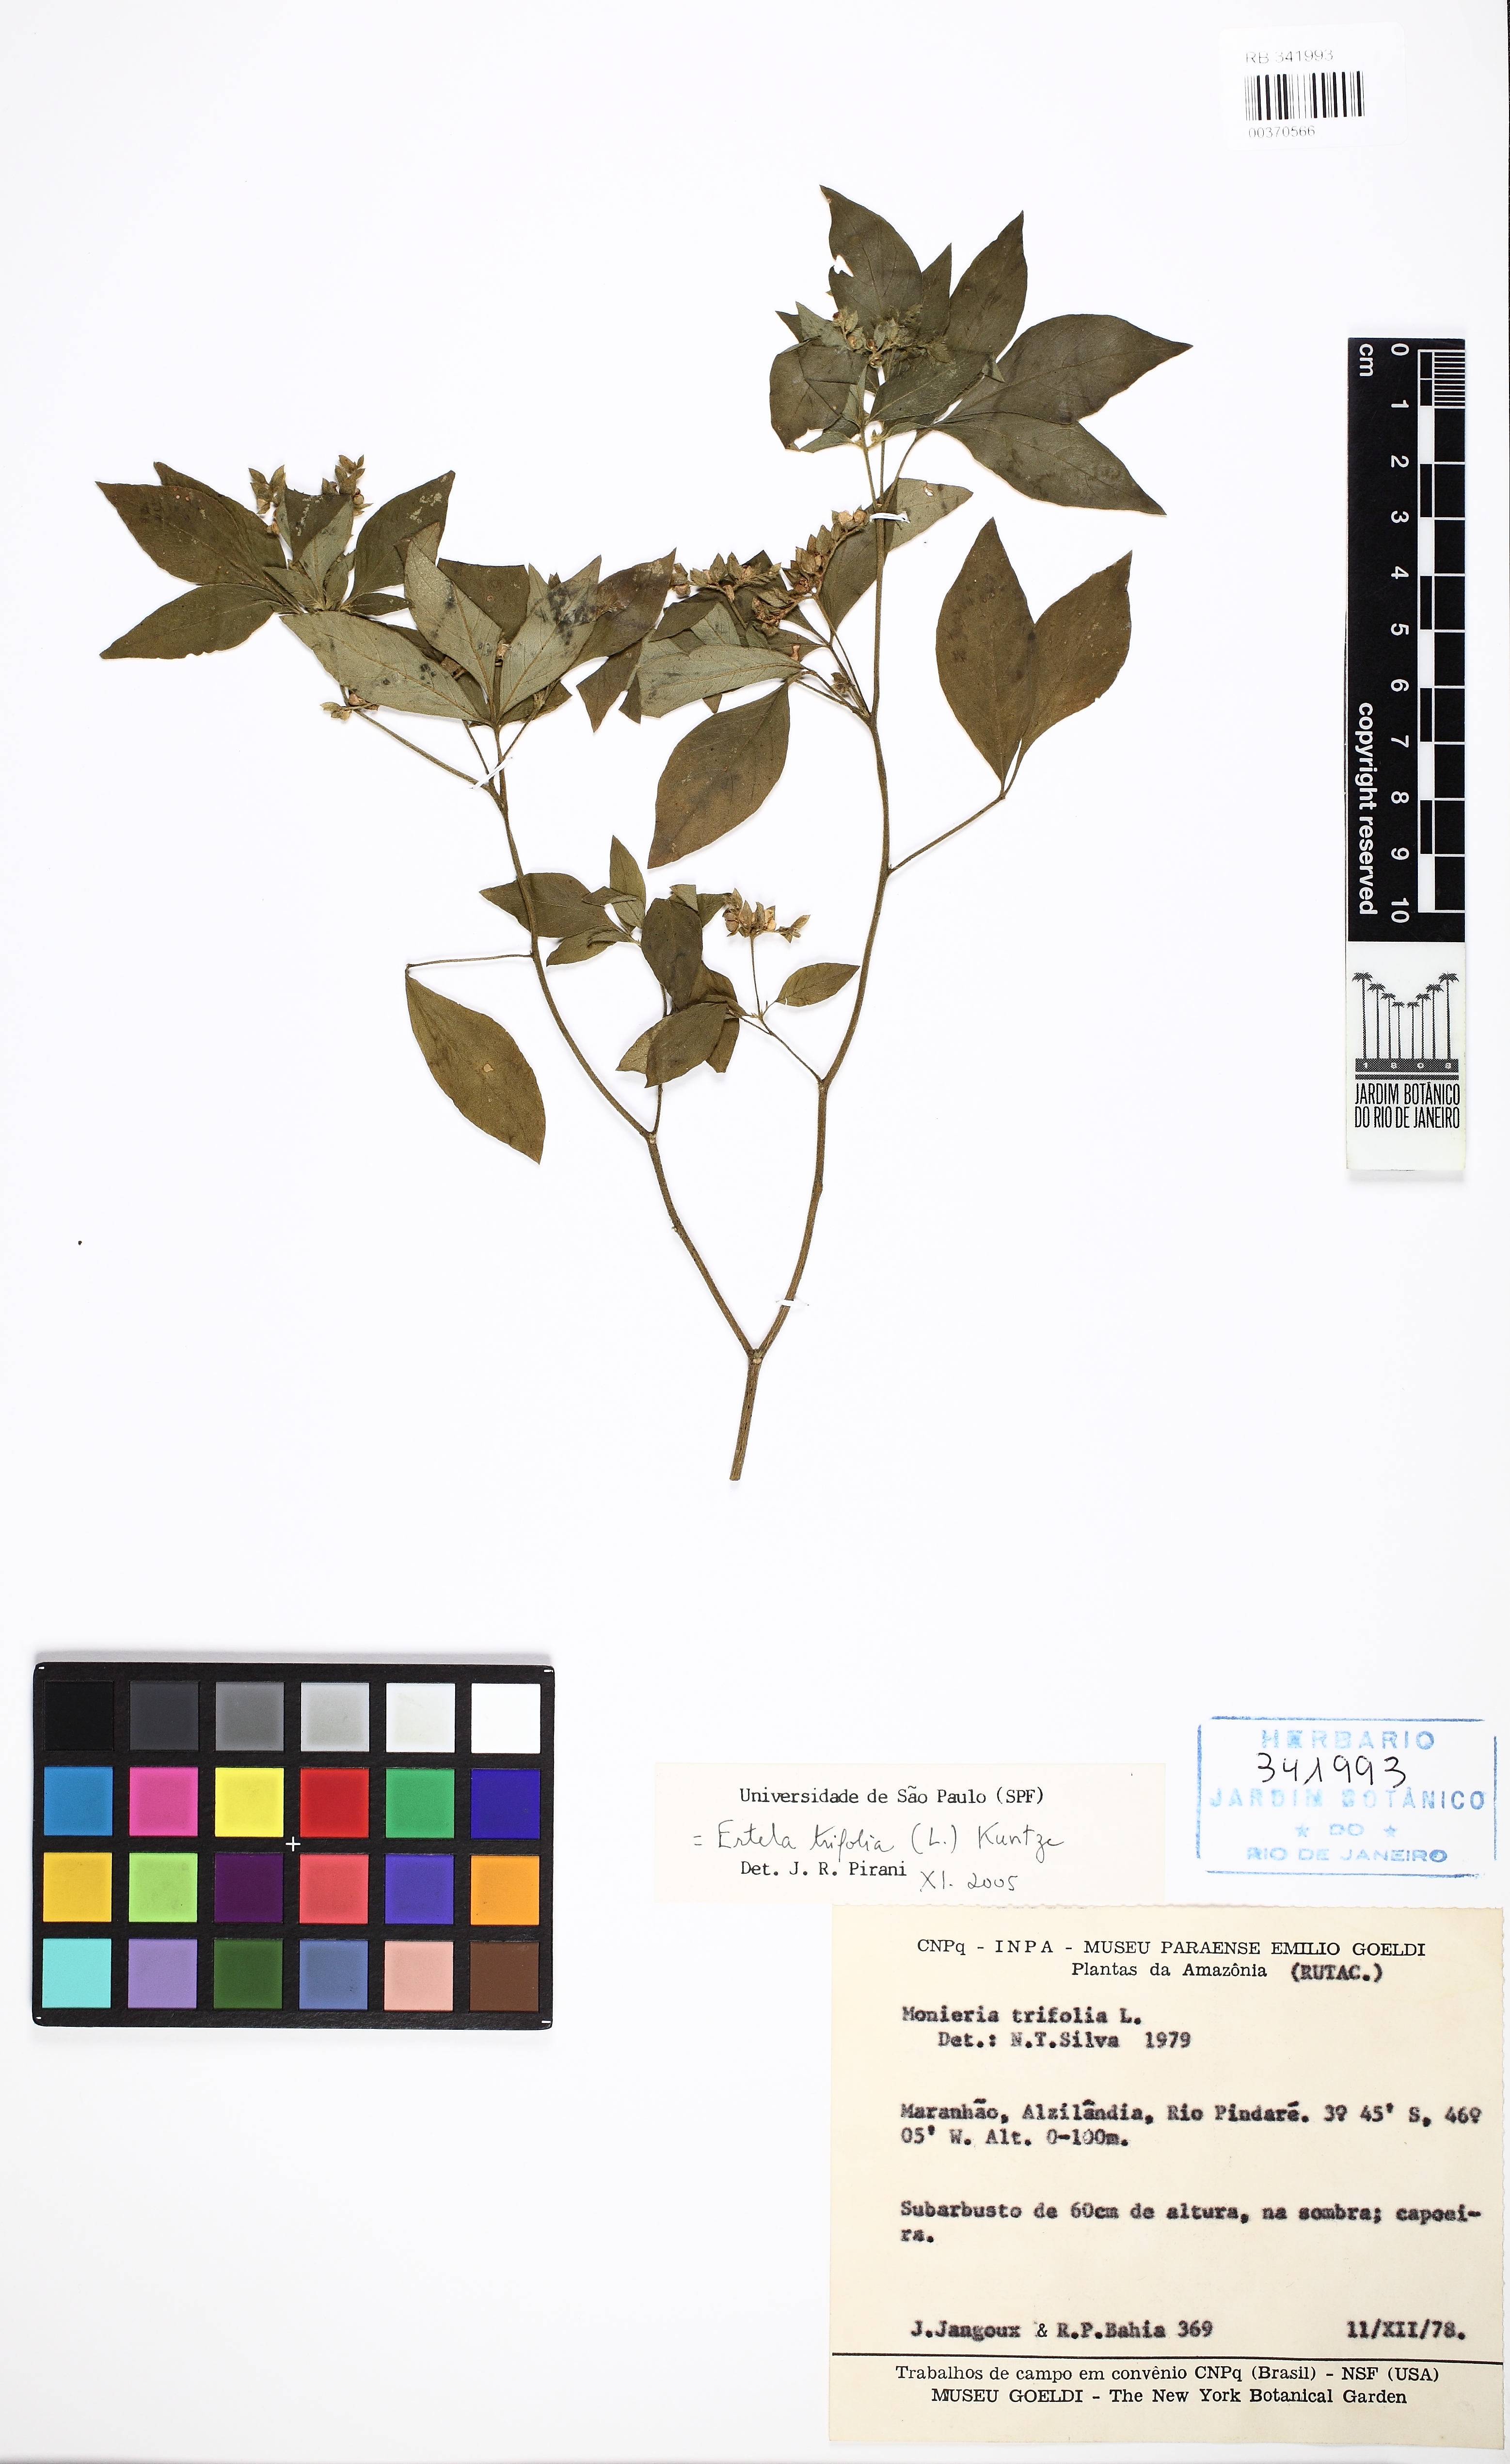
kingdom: Plantae
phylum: Tracheophyta
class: Magnoliopsida
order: Sapindales
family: Rutaceae
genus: Ertela
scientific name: Ertela trifolia
